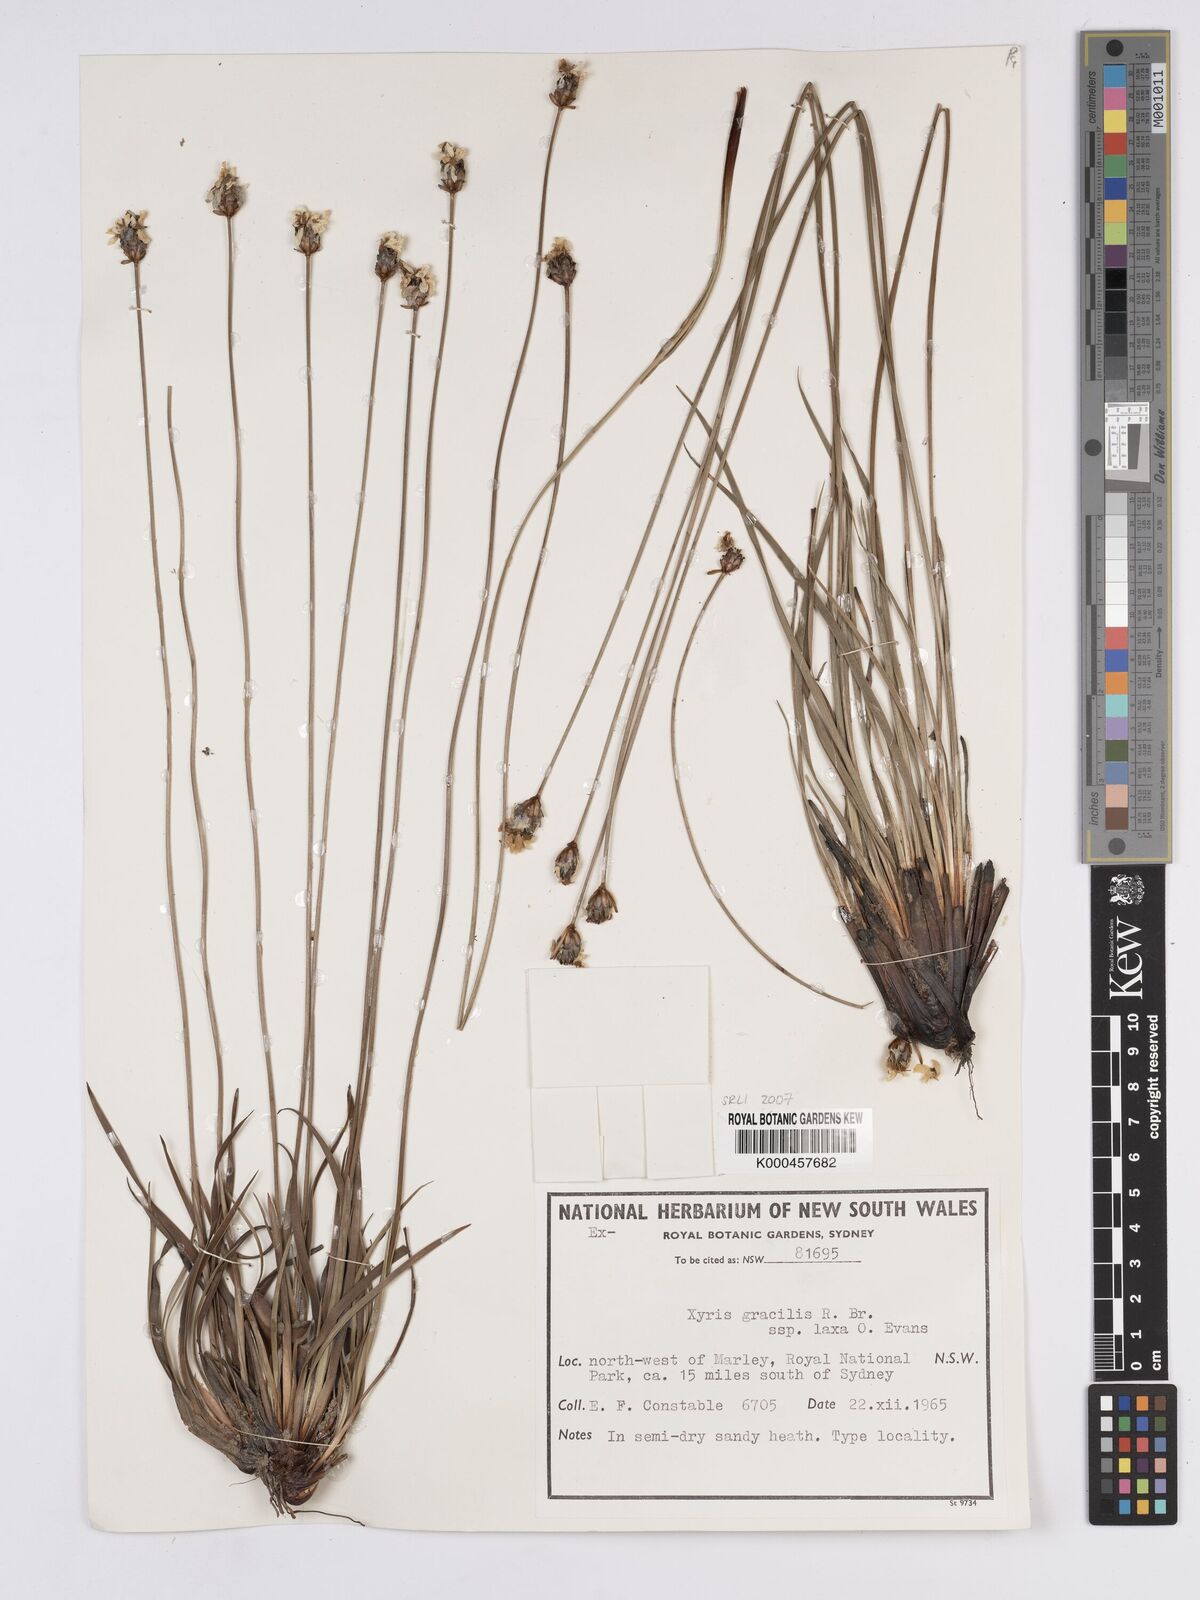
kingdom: Plantae
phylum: Tracheophyta
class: Liliopsida
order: Poales
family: Xyridaceae
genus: Xyris
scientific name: Xyris bracteata
